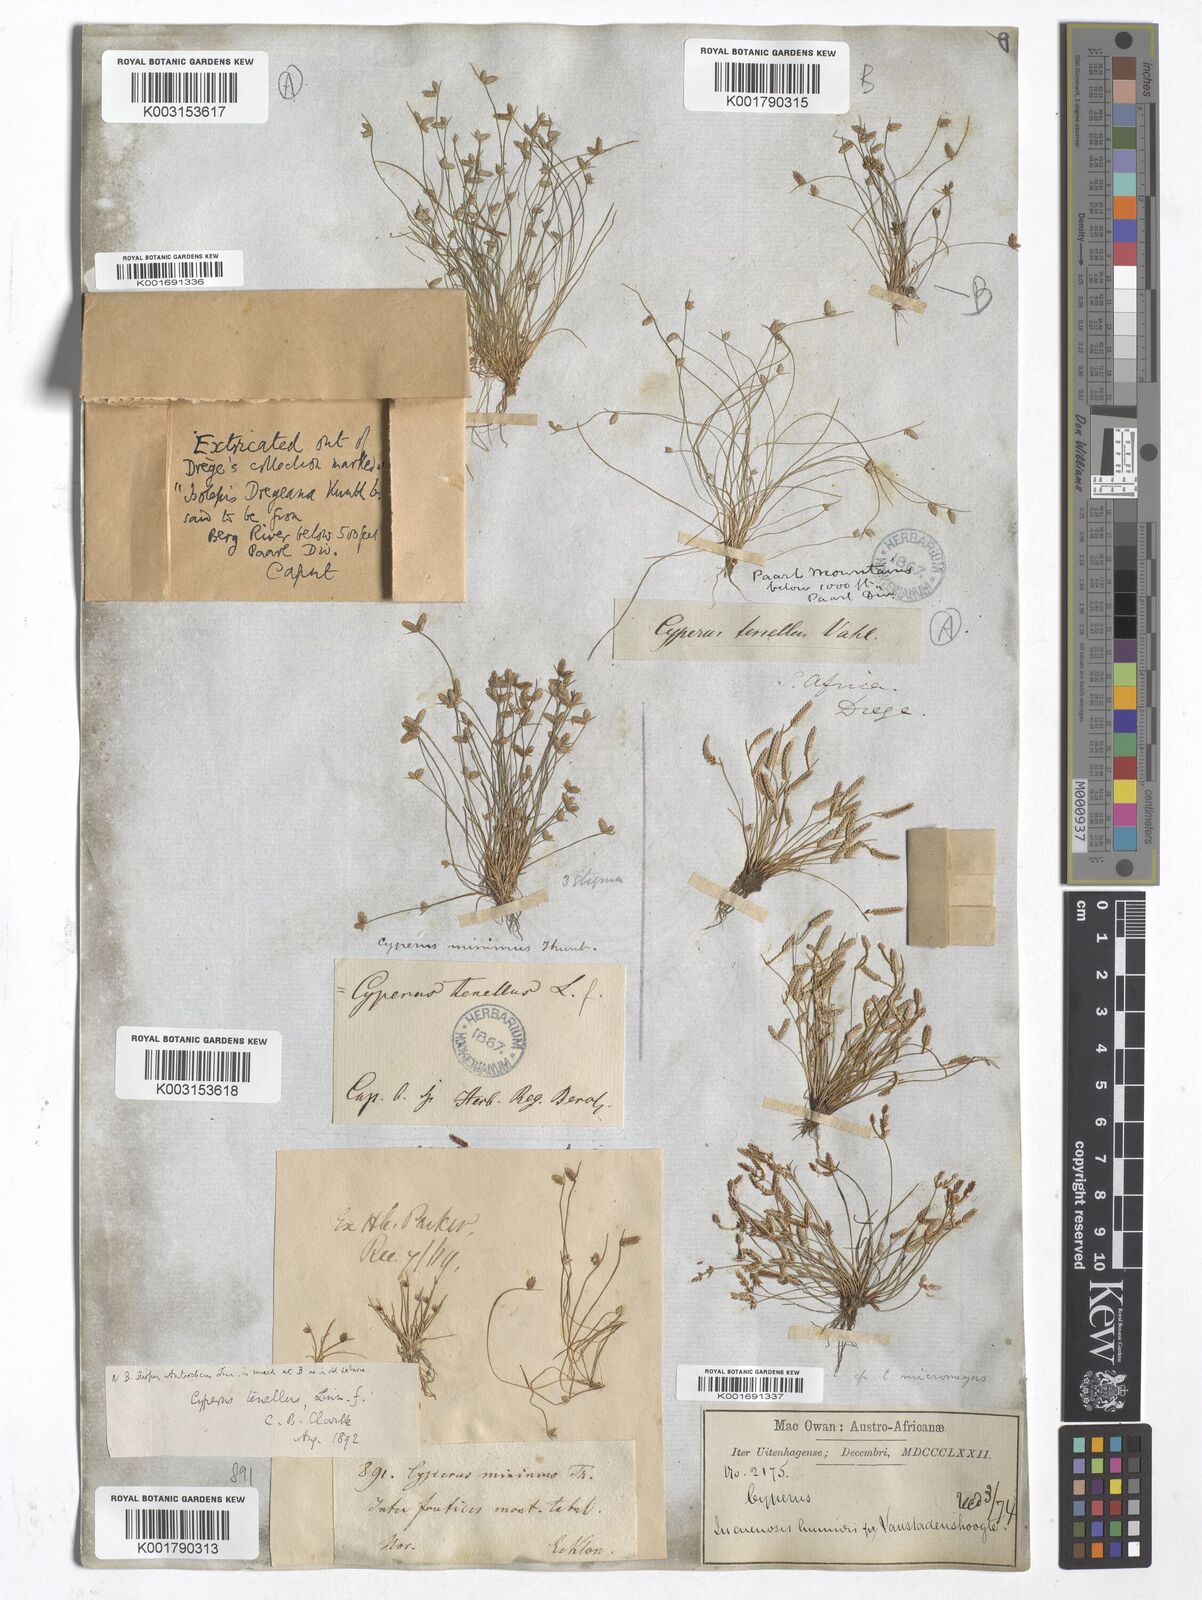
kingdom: Plantae
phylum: Tracheophyta
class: Liliopsida
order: Poales
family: Cyperaceae
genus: Isolepis
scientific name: Isolepis levynsiana
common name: Sedge
